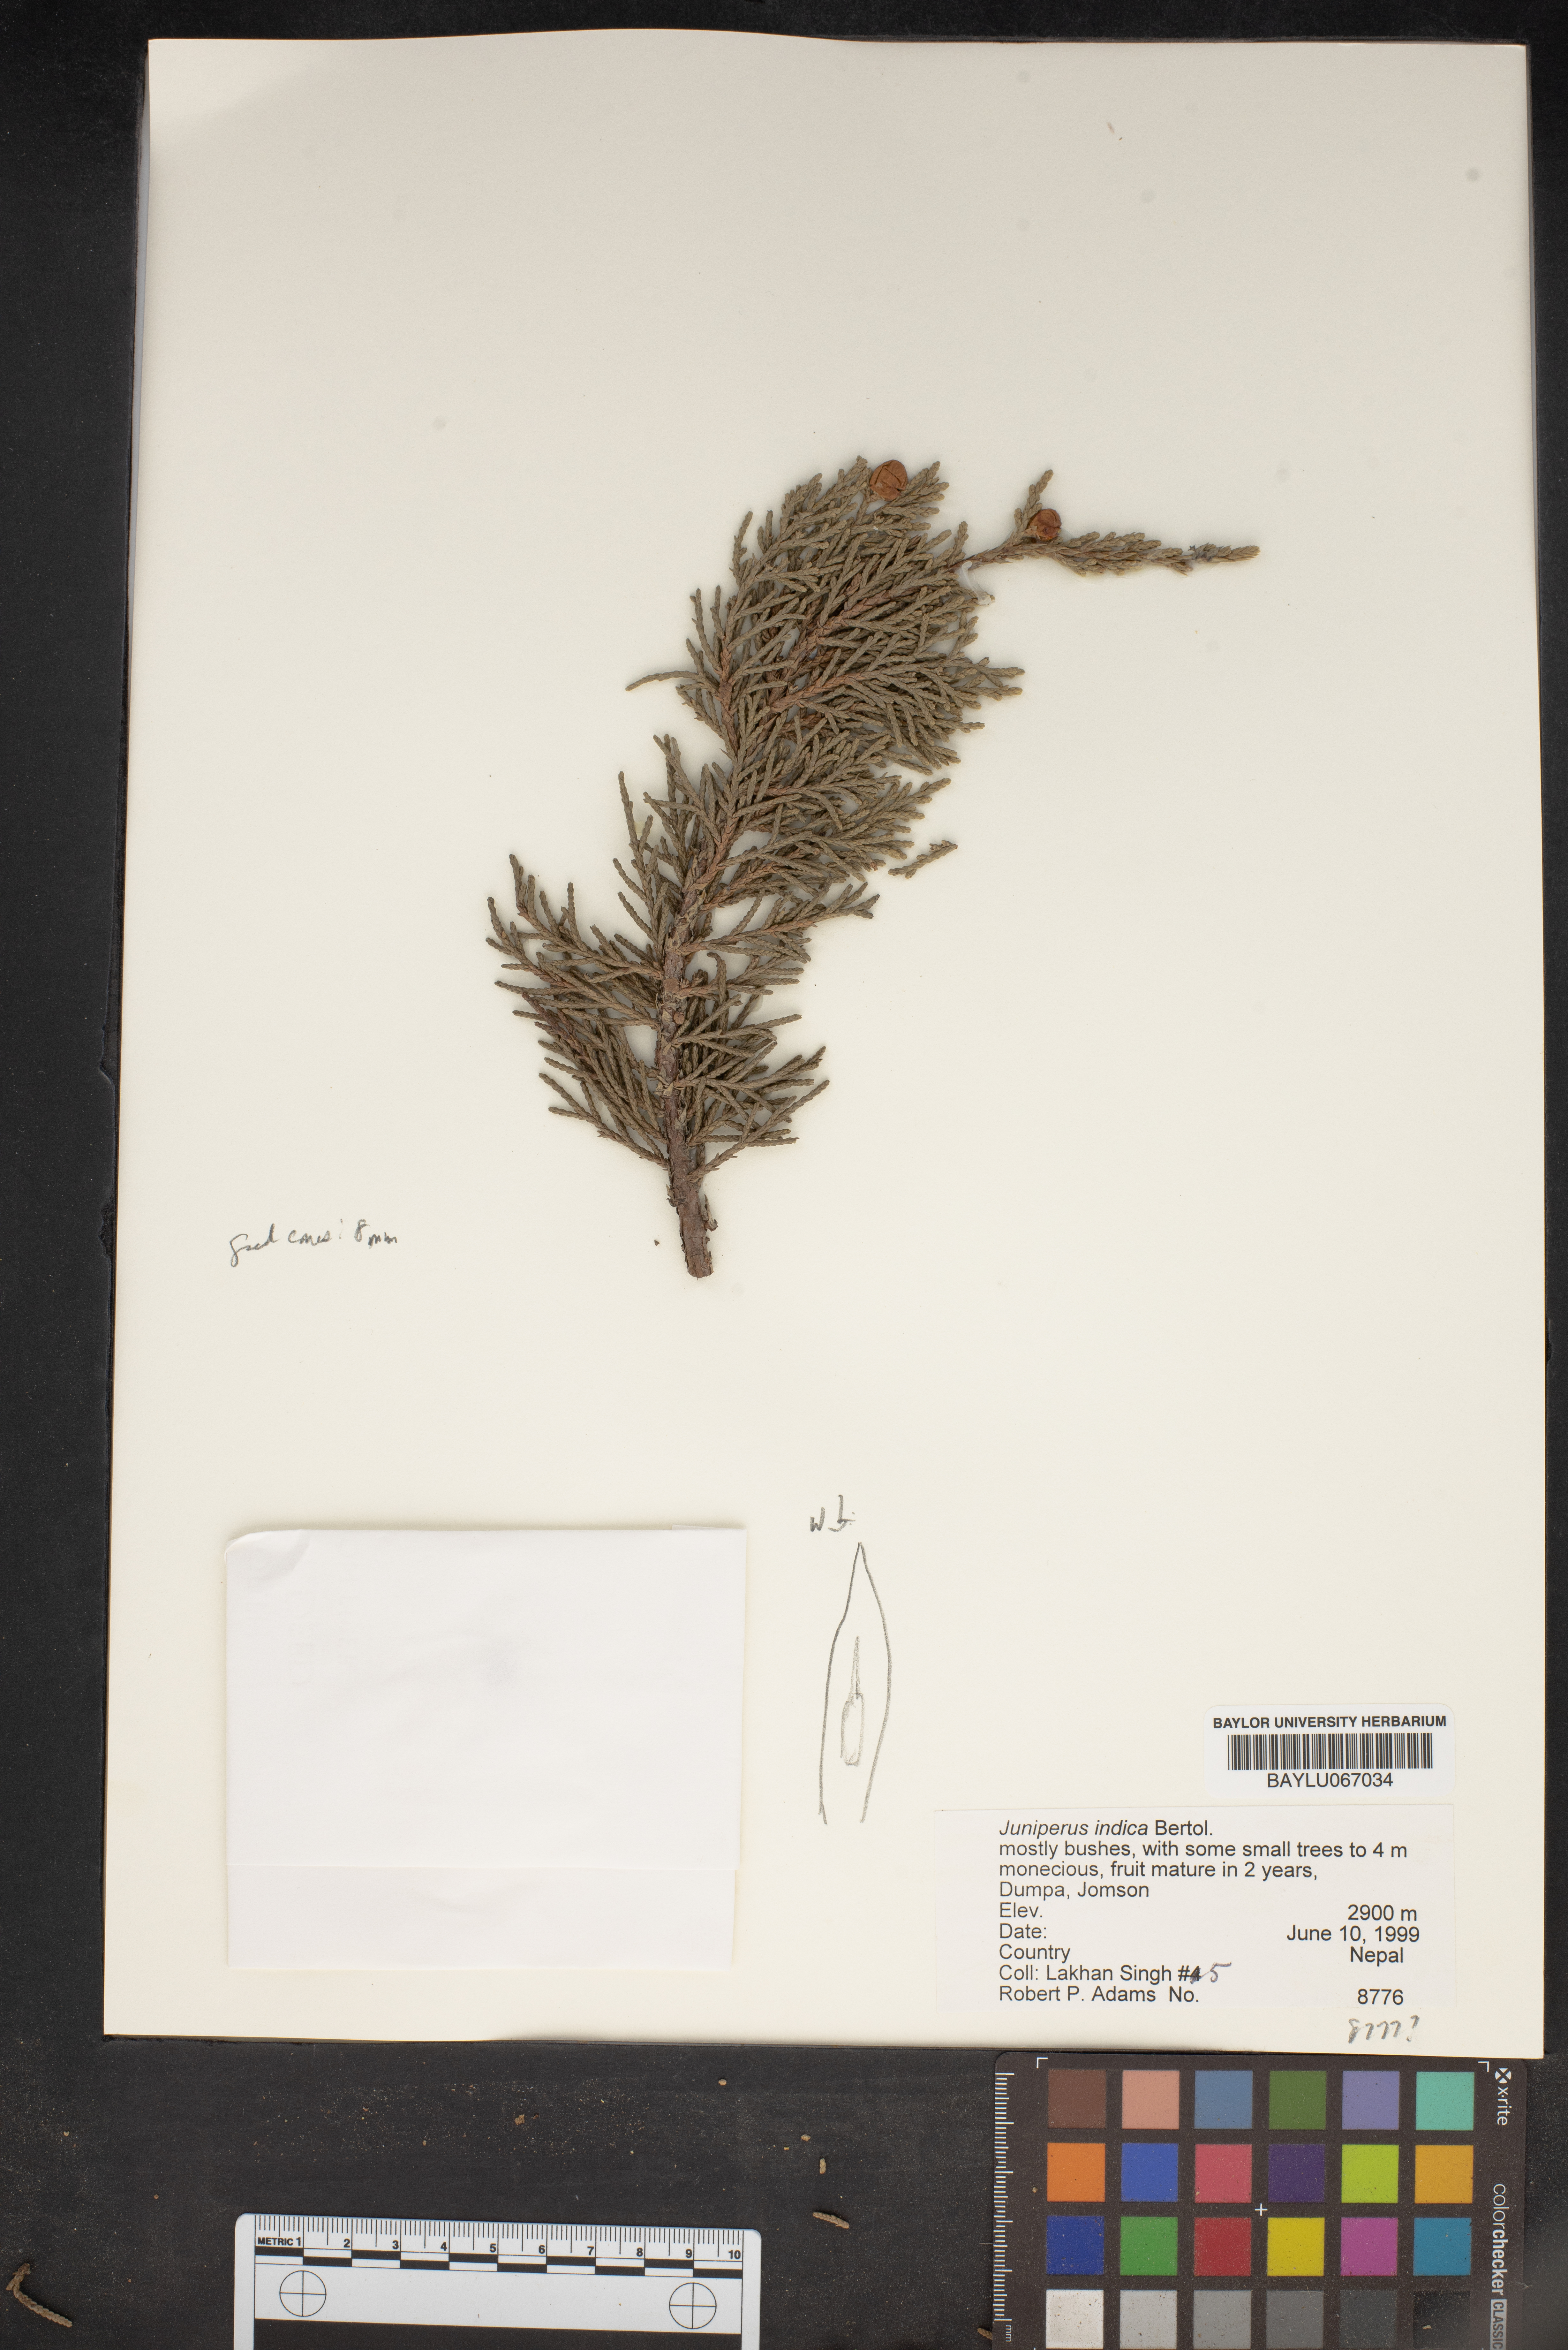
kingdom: Plantae
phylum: Tracheophyta
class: Pinopsida
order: Pinales
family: Cupressaceae
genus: Juniperus
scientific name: Juniperus indica
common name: Black juniper
